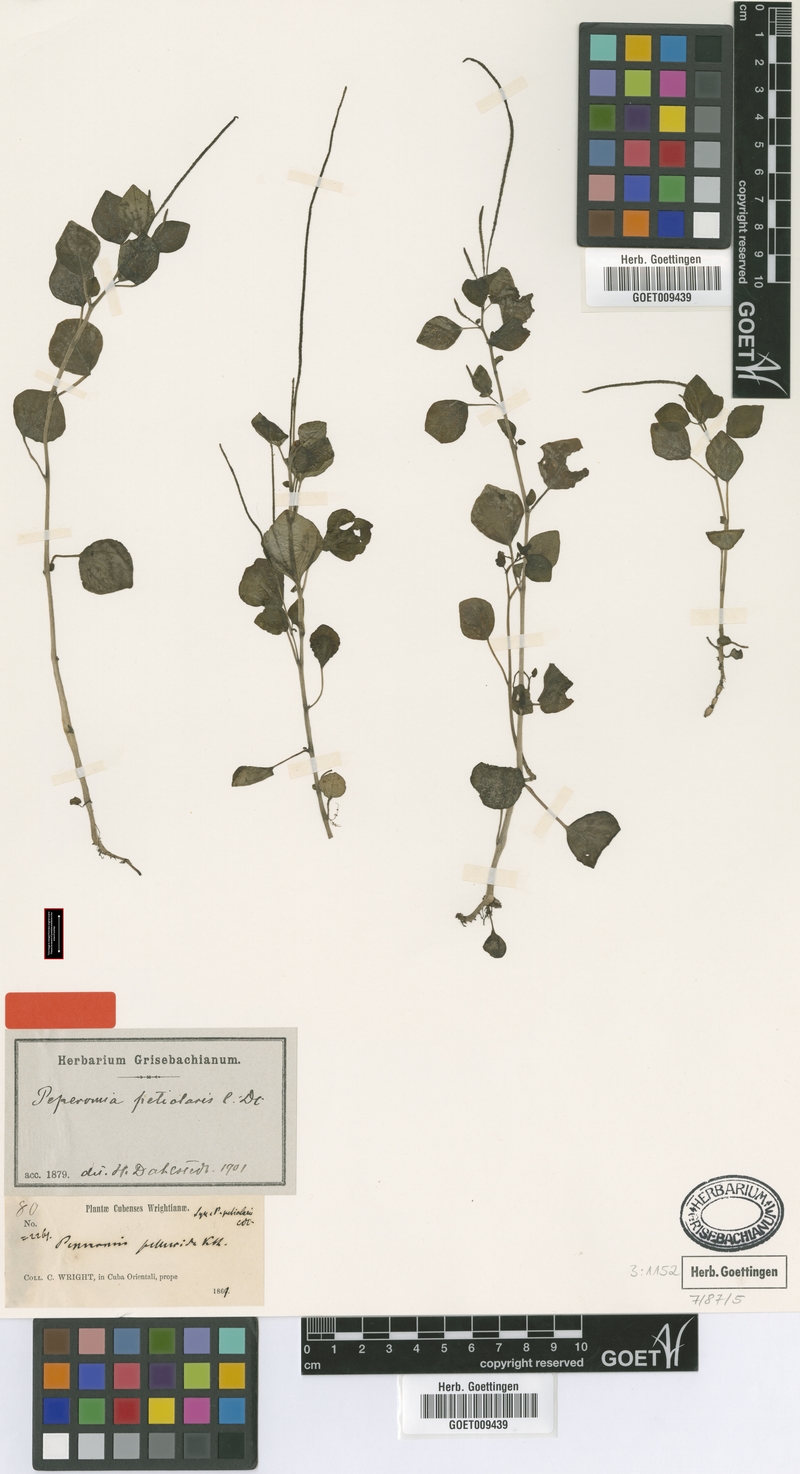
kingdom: Plantae
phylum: Tracheophyta
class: Magnoliopsida
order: Piperales
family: Piperaceae
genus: Peperomia
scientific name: Peperomia petiolaris
